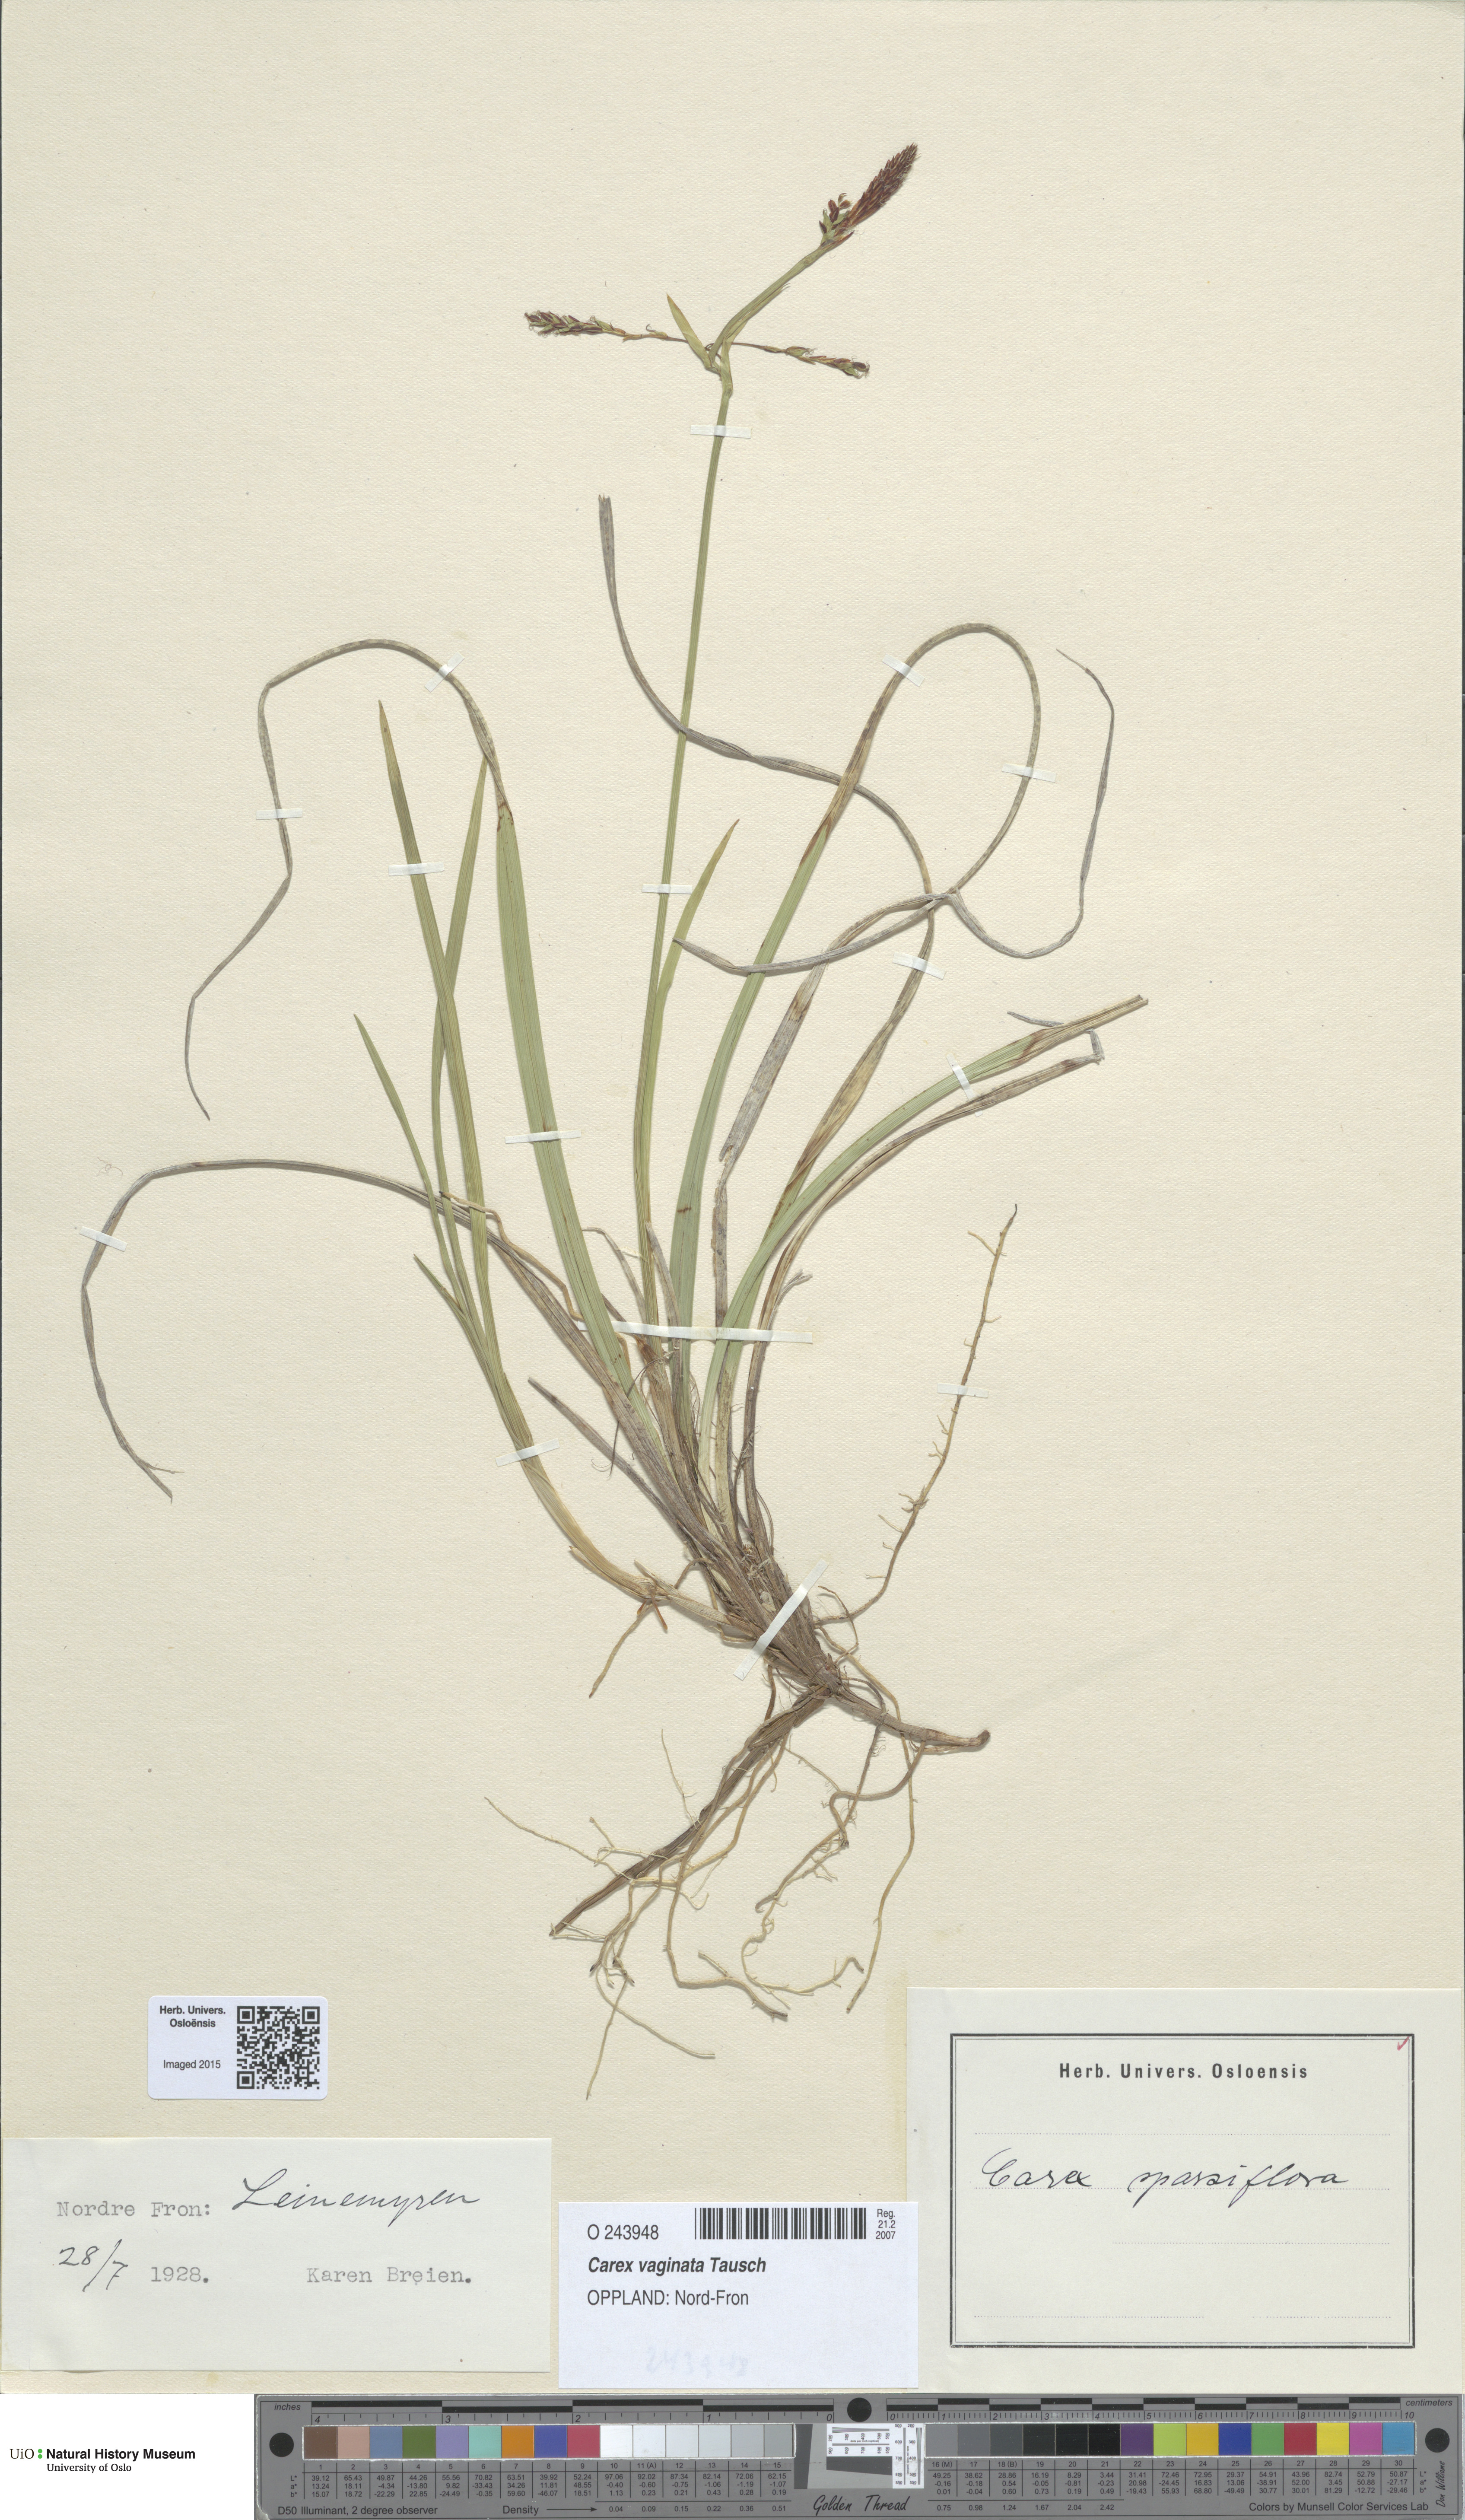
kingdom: Plantae
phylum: Tracheophyta
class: Liliopsida
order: Poales
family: Cyperaceae
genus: Carex
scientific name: Carex vaginata
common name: Sheathed sedge
